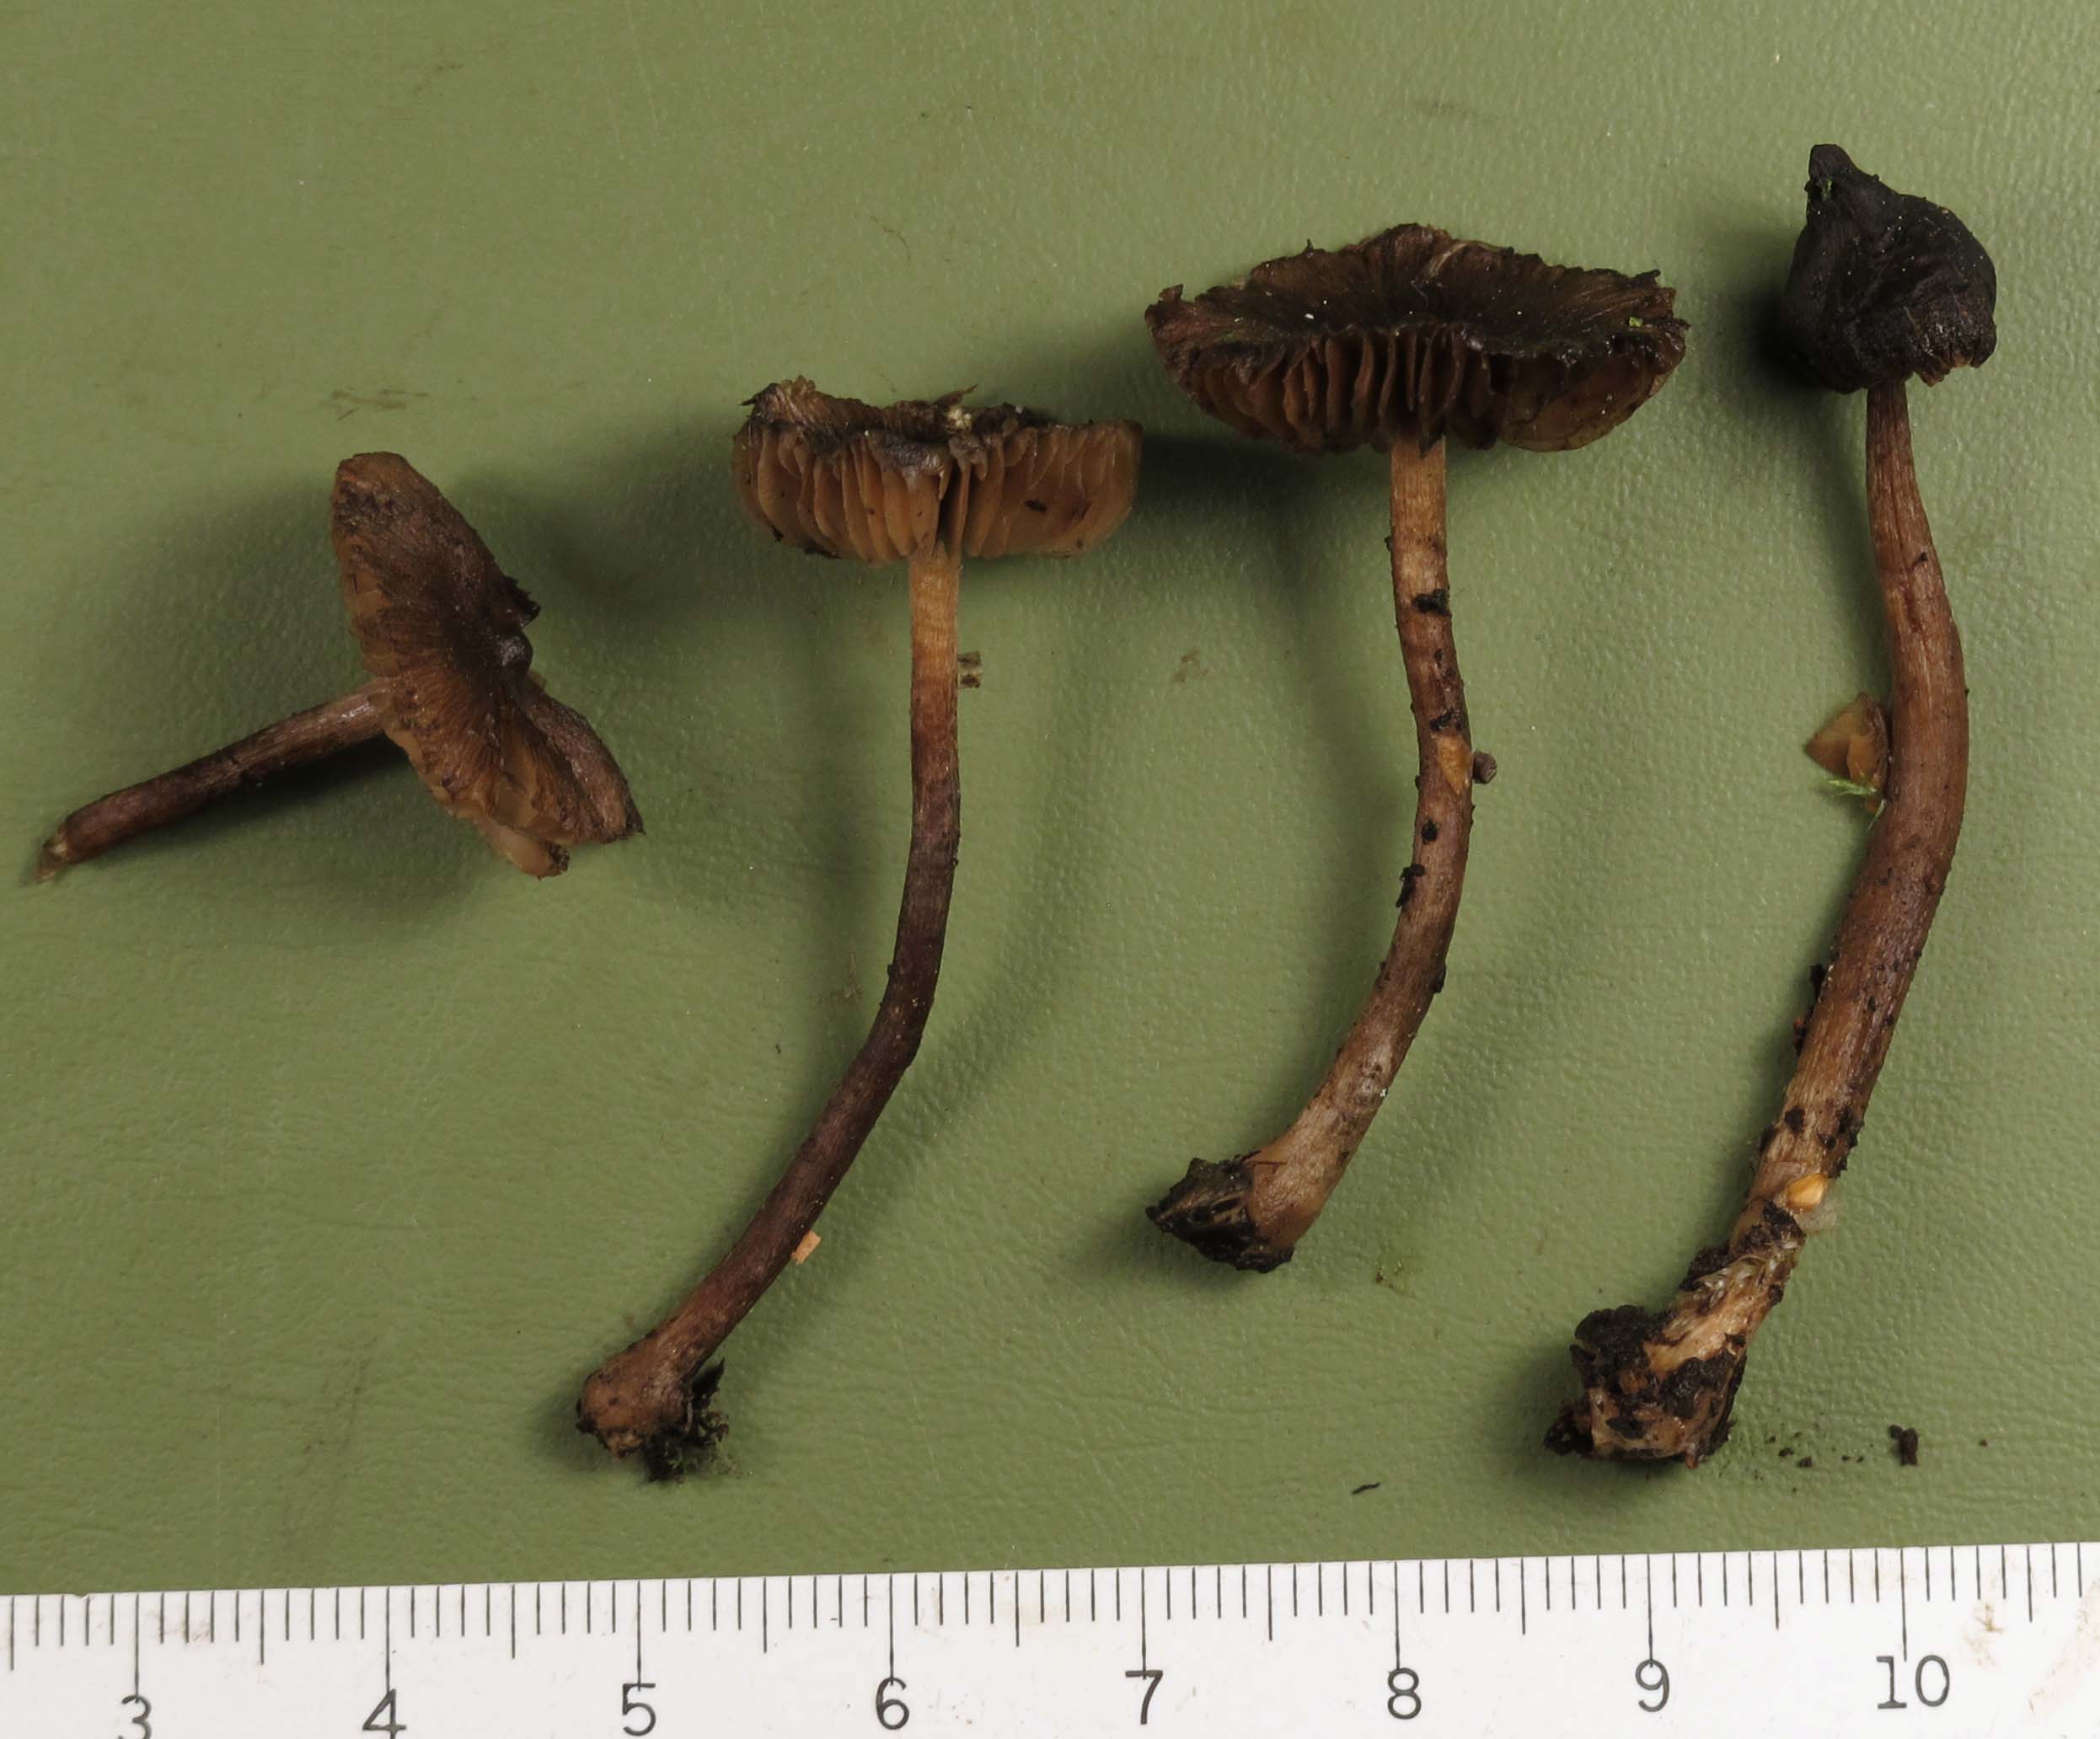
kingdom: Fungi
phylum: Basidiomycota
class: Agaricomycetes
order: Agaricales
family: Inocybaceae
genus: Inocybe
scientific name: Inocybe acuta
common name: papil-trævlhat
